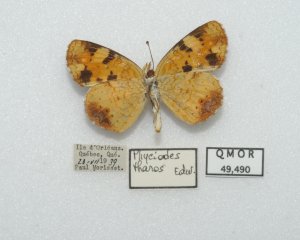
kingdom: Animalia
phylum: Arthropoda
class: Insecta
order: Lepidoptera
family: Nymphalidae
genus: Phyciodes
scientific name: Phyciodes tharos
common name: Northern Crescent
